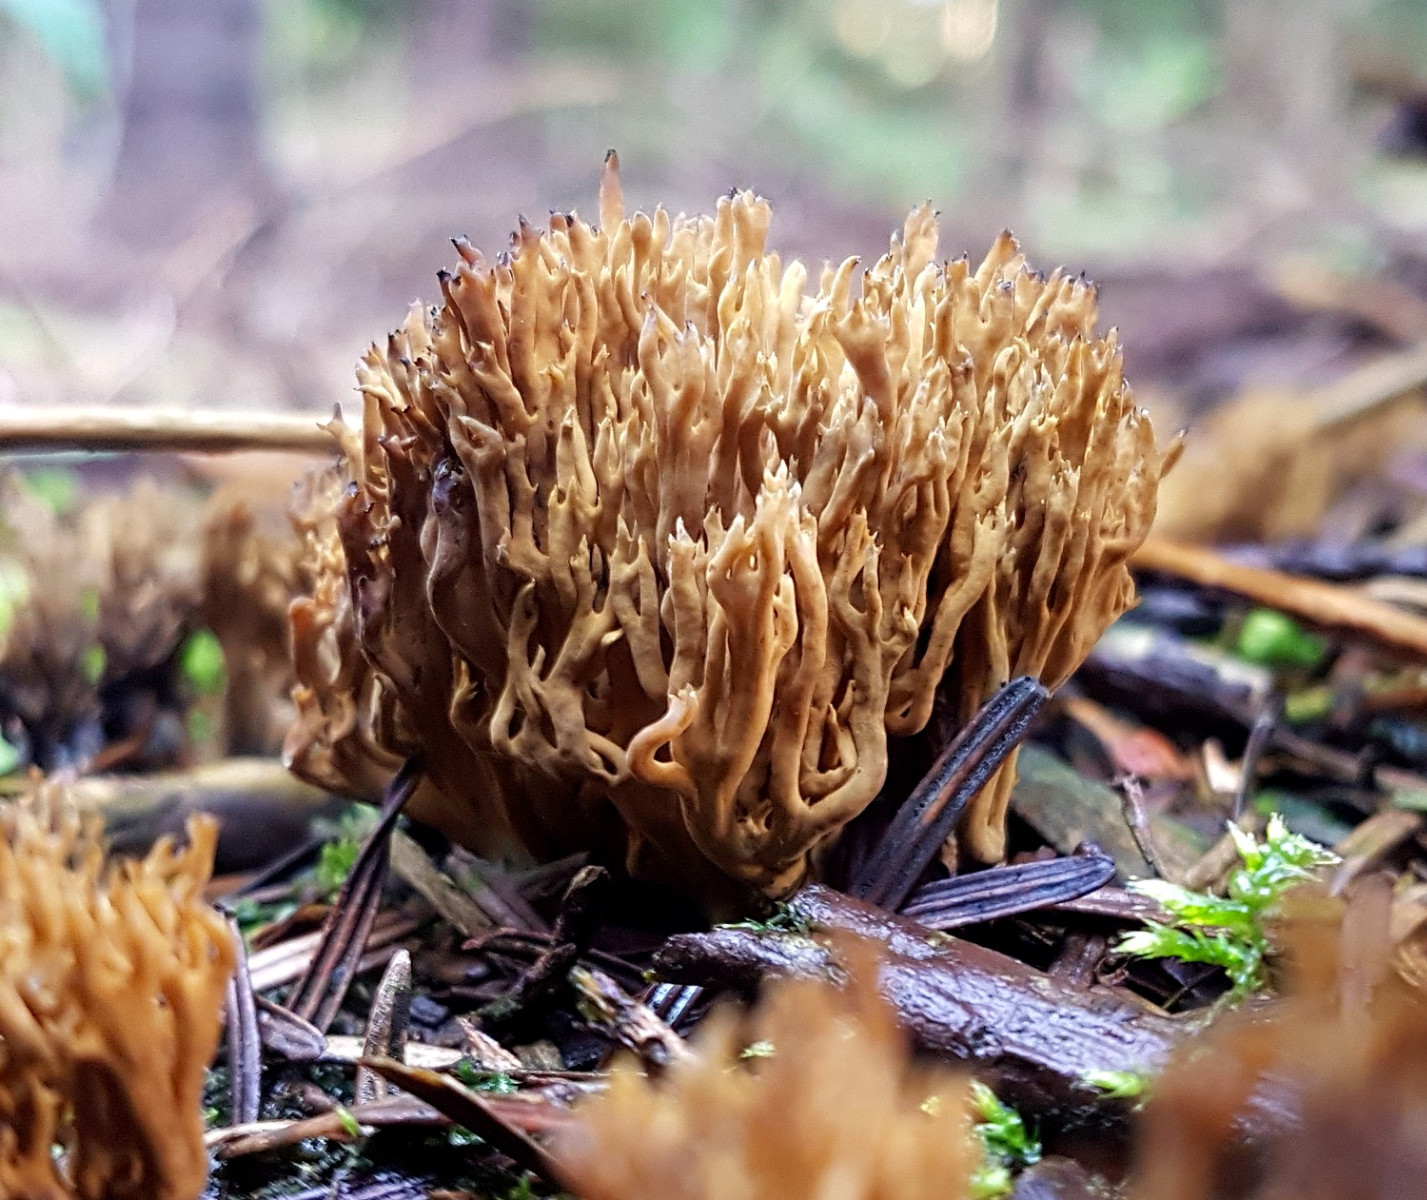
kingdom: Fungi
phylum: Basidiomycota
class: Agaricomycetes
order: Gomphales
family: Gomphaceae
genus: Phaeoclavulina
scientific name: Phaeoclavulina eumorpha
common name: gran-koralsvamp
